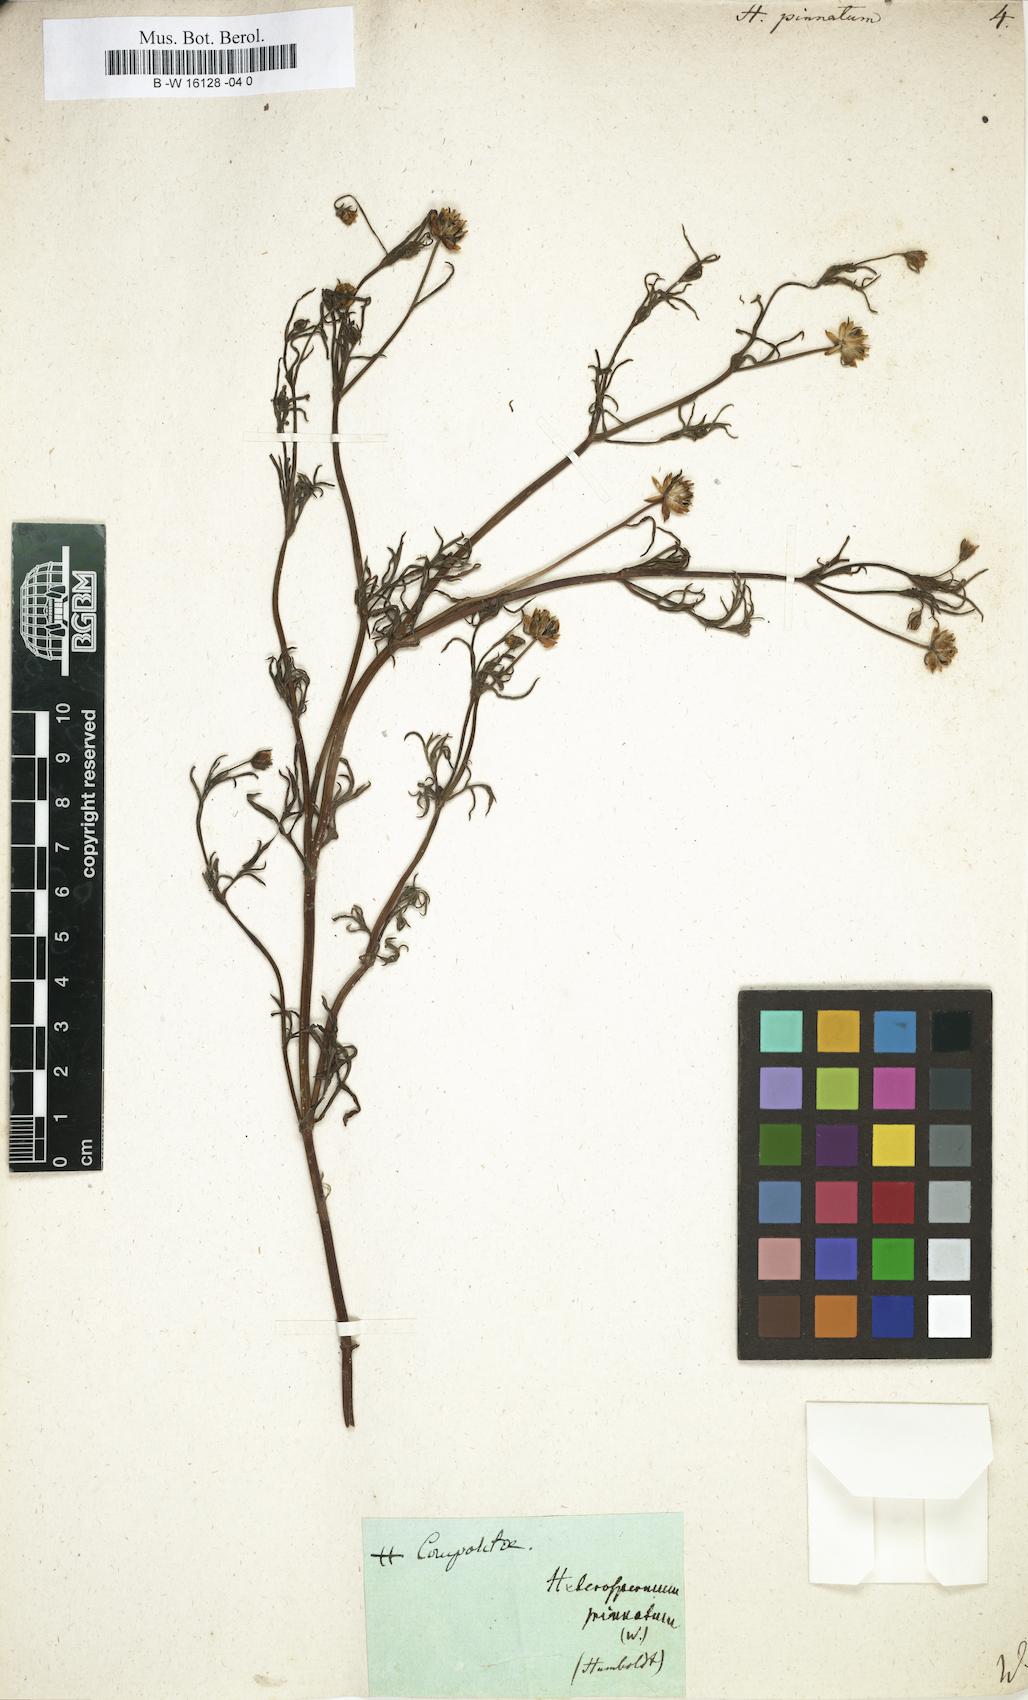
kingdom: Plantae
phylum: Tracheophyta
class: Magnoliopsida
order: Asterales
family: Asteraceae
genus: Heterosperma
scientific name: Heterosperma
